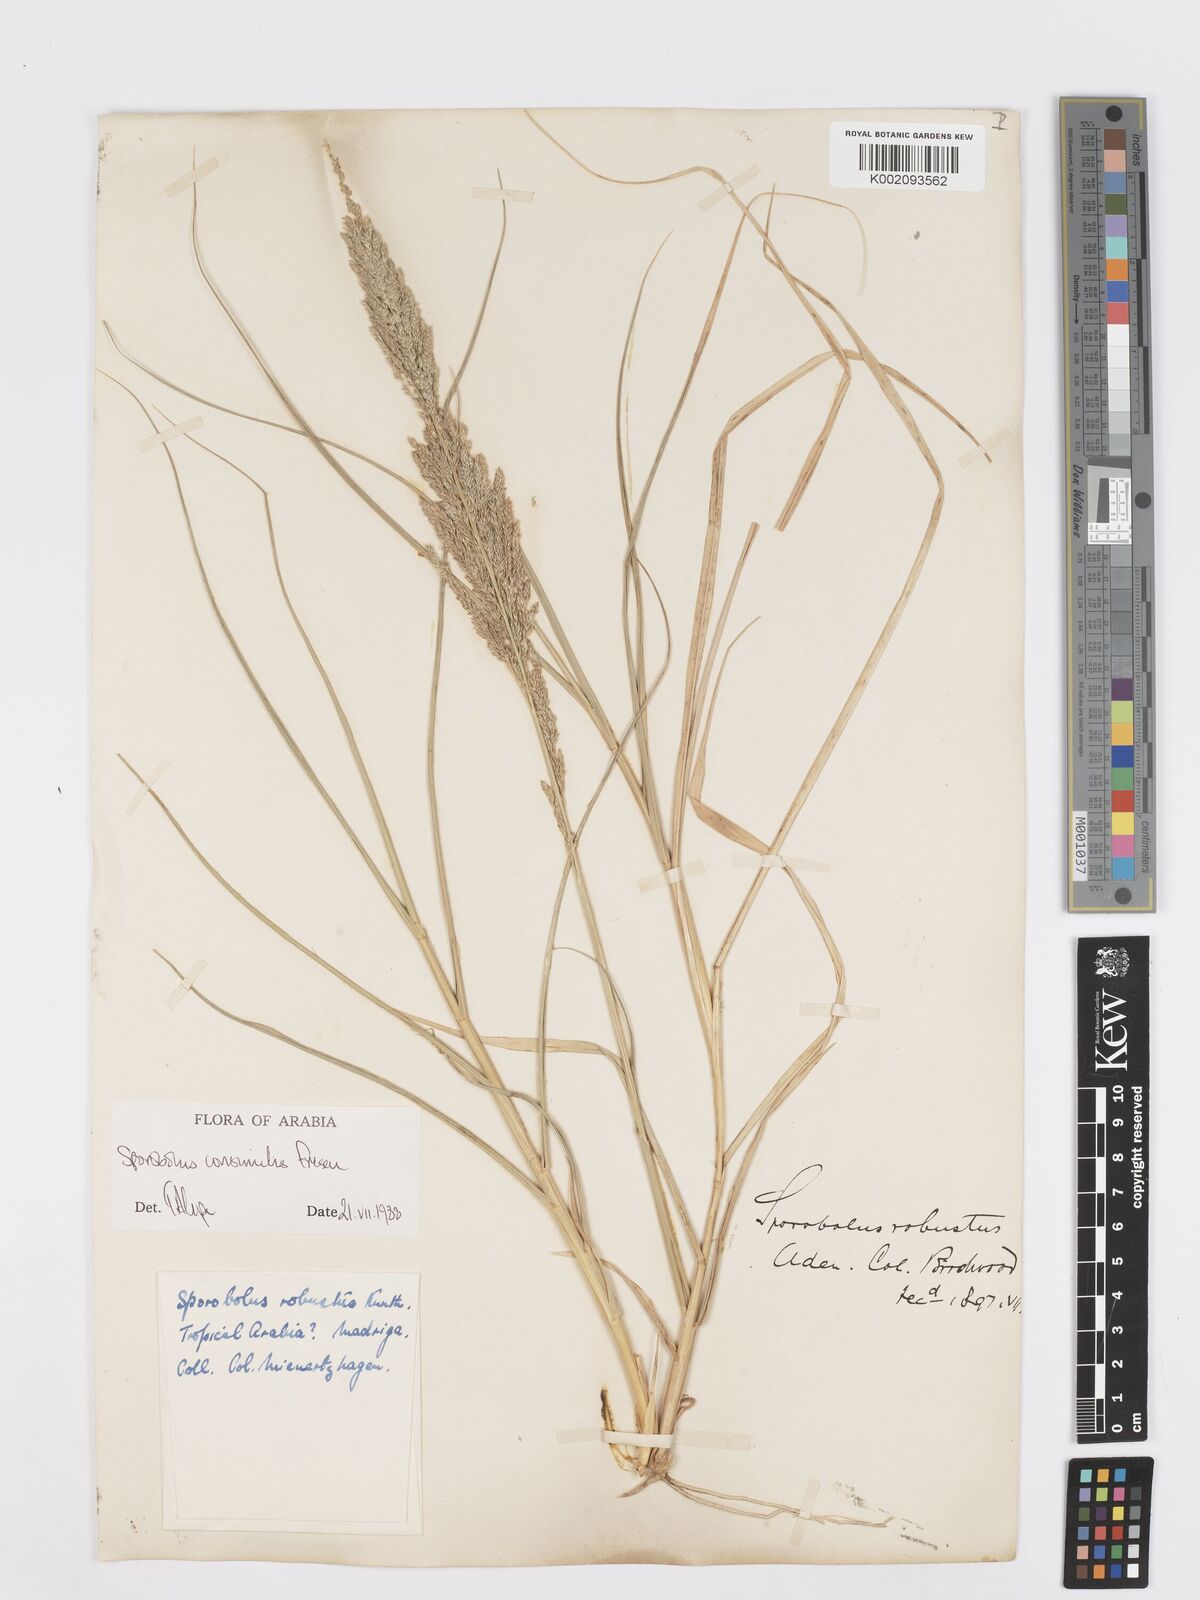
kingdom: Plantae
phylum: Tracheophyta
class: Liliopsida
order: Poales
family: Poaceae
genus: Sporobolus
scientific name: Sporobolus consimilis
